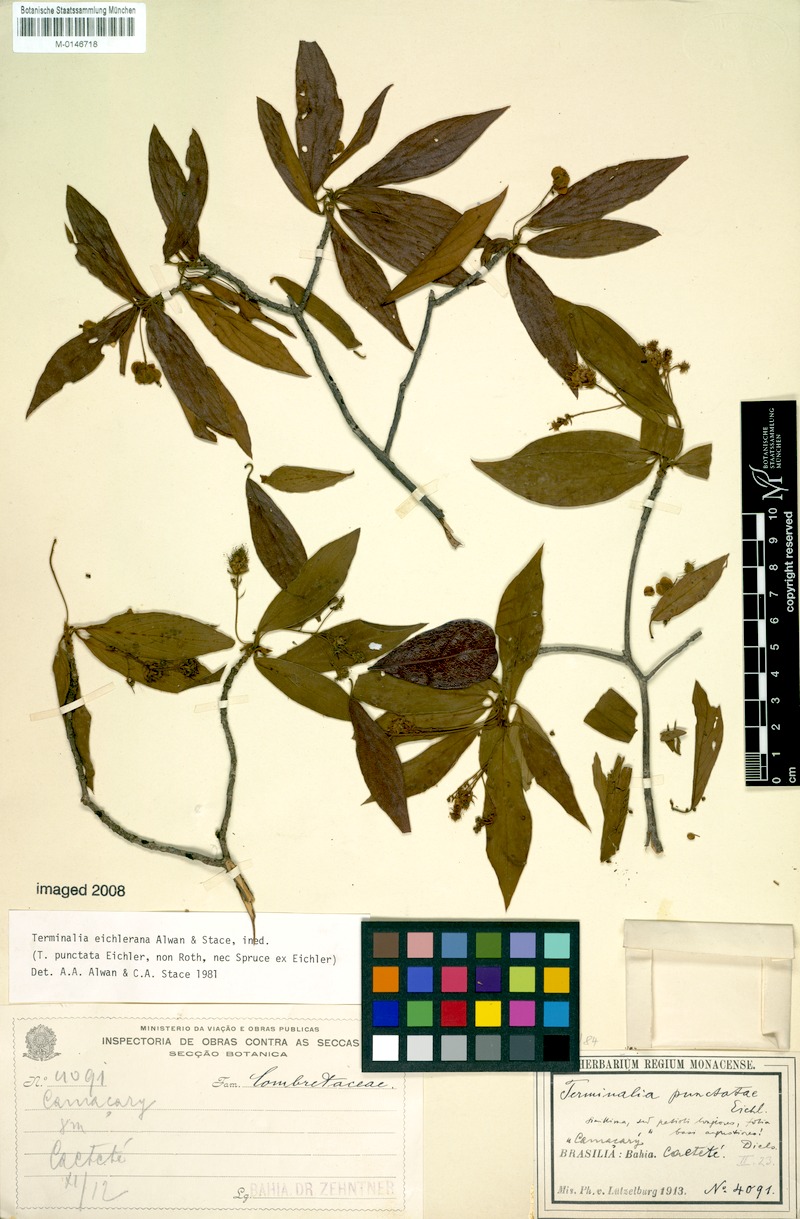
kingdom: Plantae
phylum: Tracheophyta
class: Magnoliopsida
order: Myrtales
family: Combretaceae
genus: Terminalia
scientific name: Terminalia eichleriana
